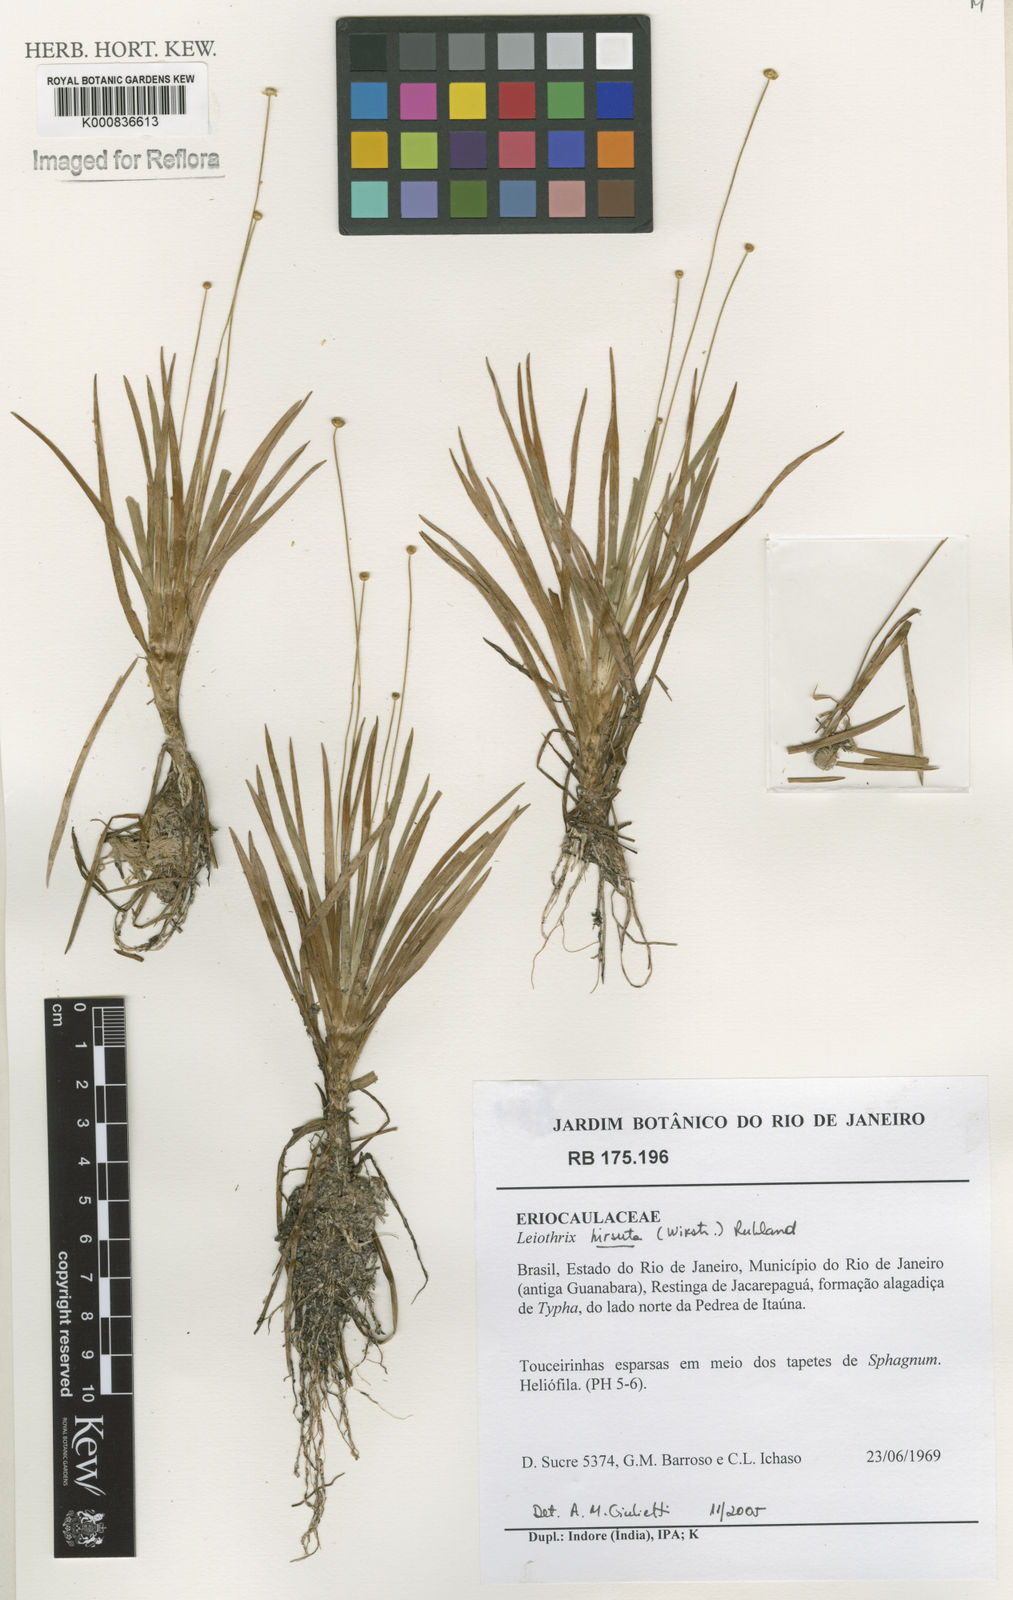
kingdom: Plantae
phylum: Tracheophyta
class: Liliopsida
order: Poales
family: Eriocaulaceae
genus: Leiothrix
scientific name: Leiothrix hirsuta
